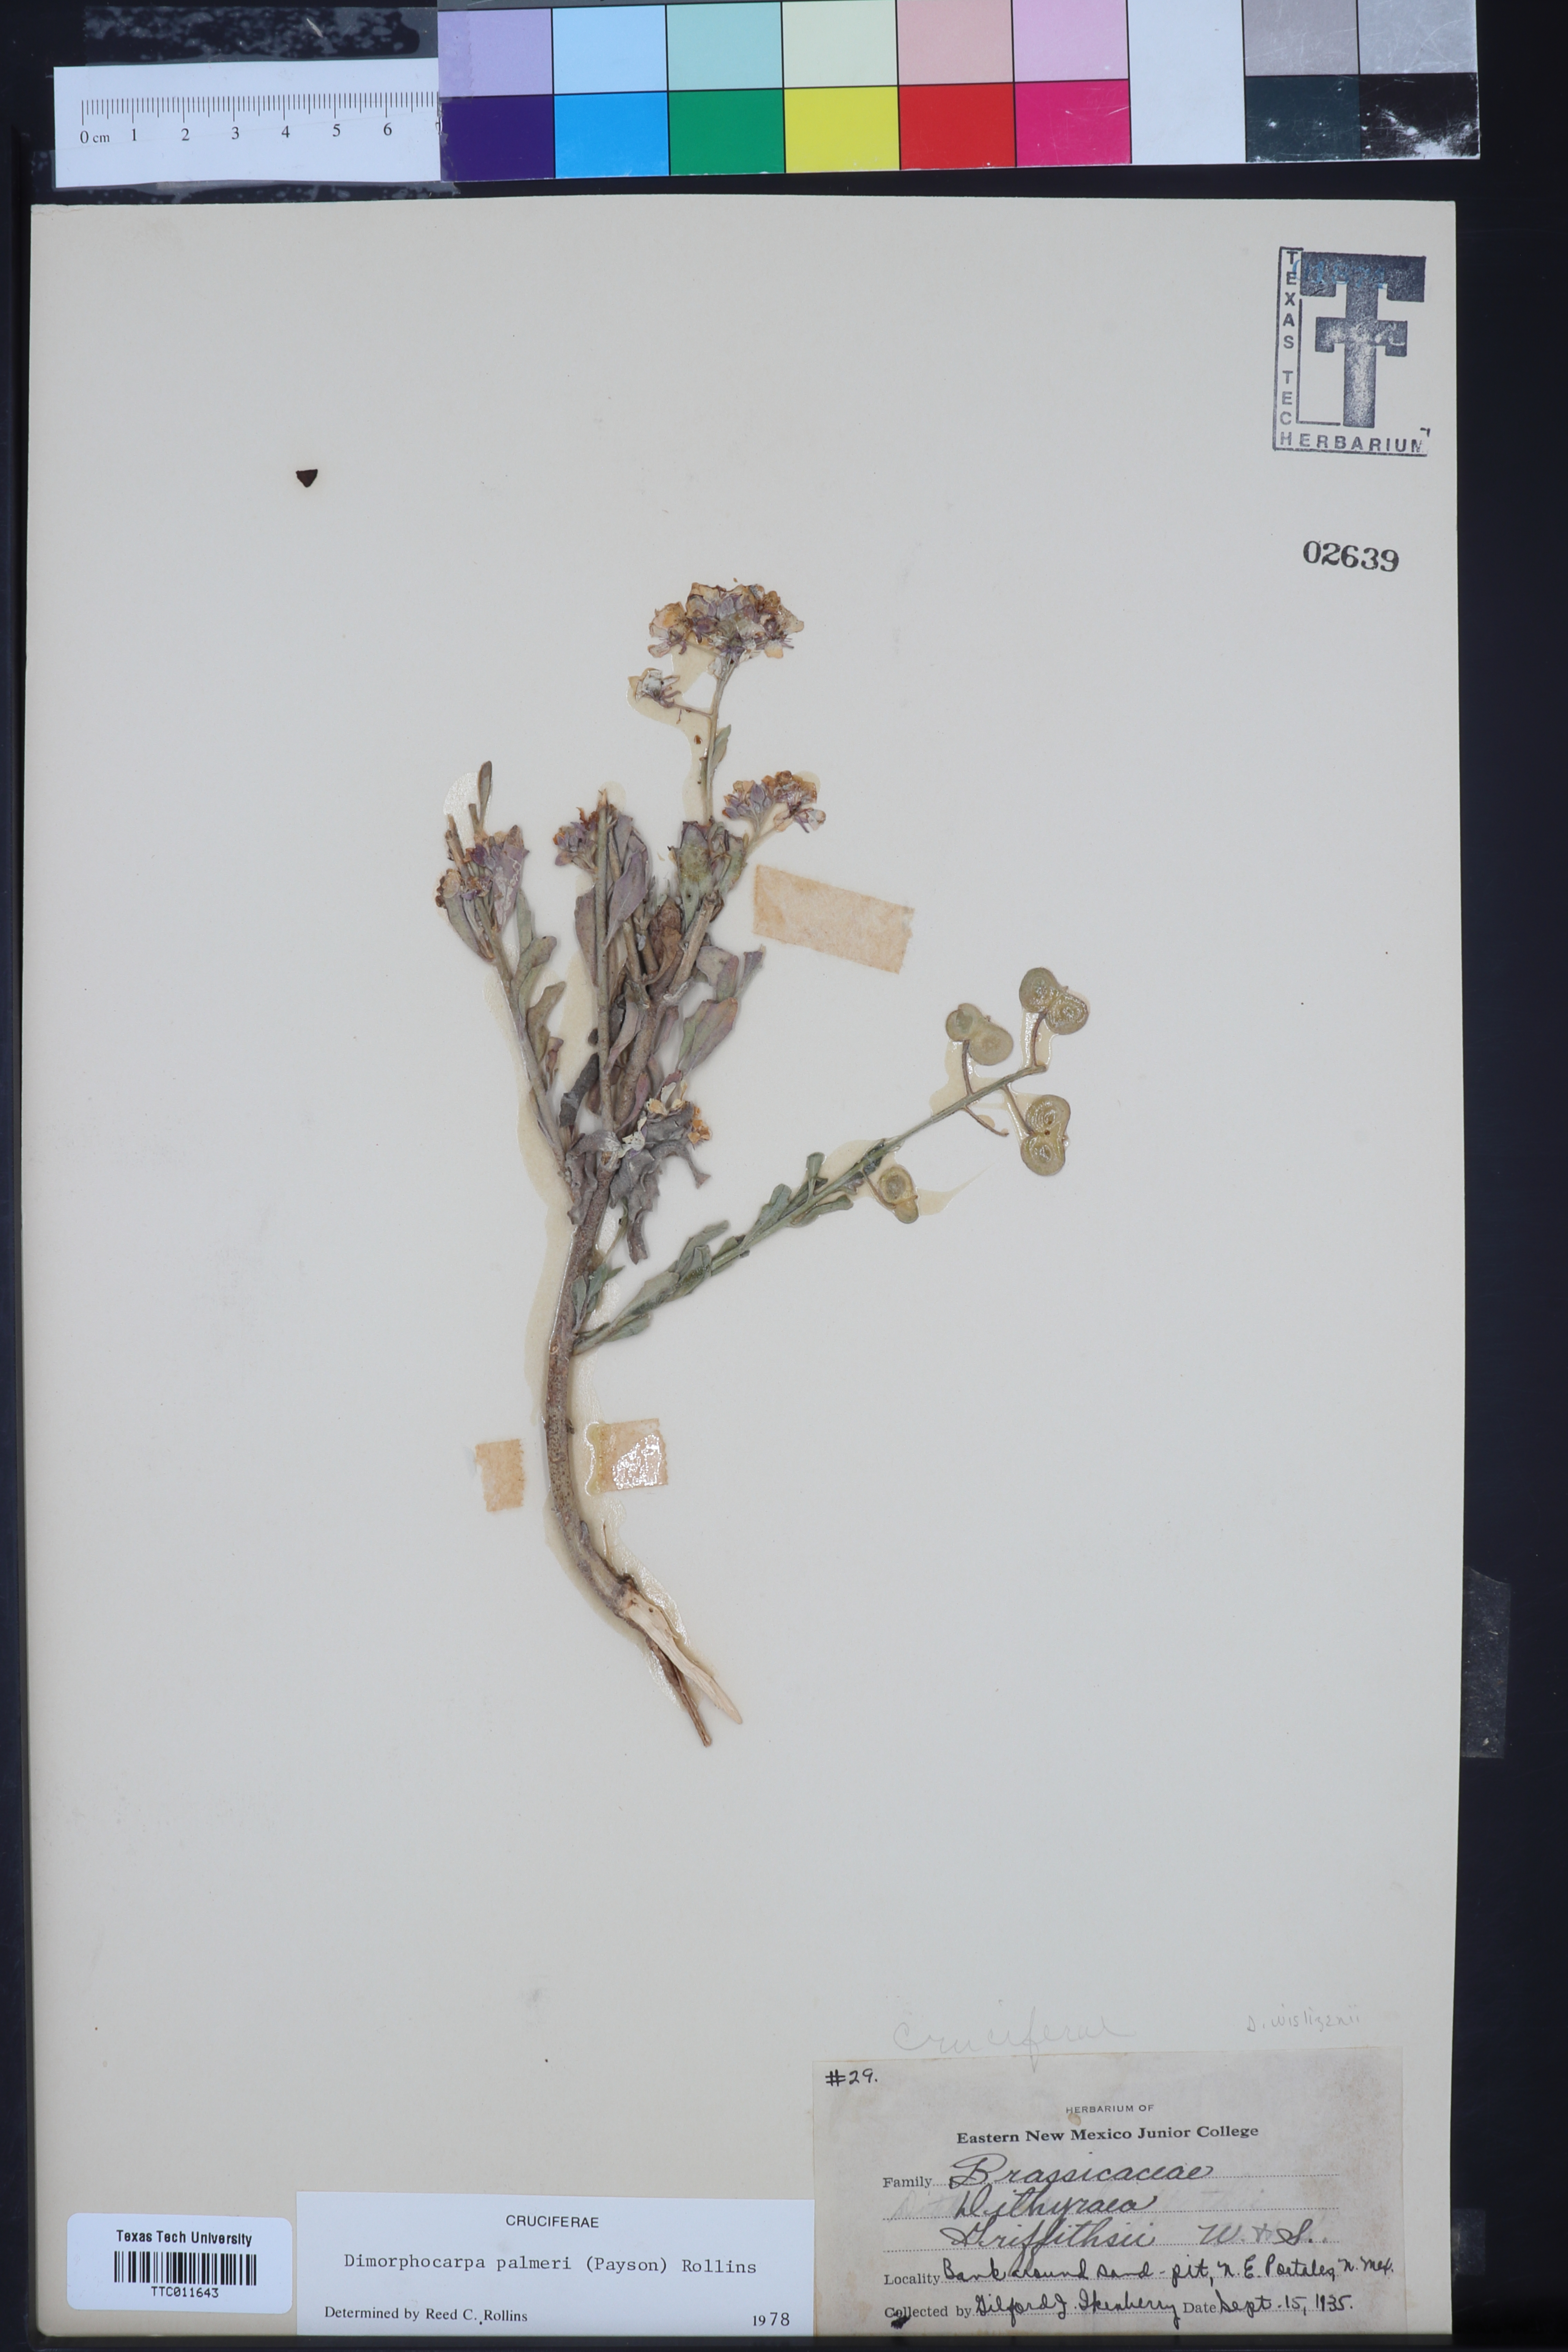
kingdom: Plantae
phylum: Tracheophyta
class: Magnoliopsida
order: Brassicales
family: Brassicaceae
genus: Dimorphocarpa
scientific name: Dimorphocarpa candicans
